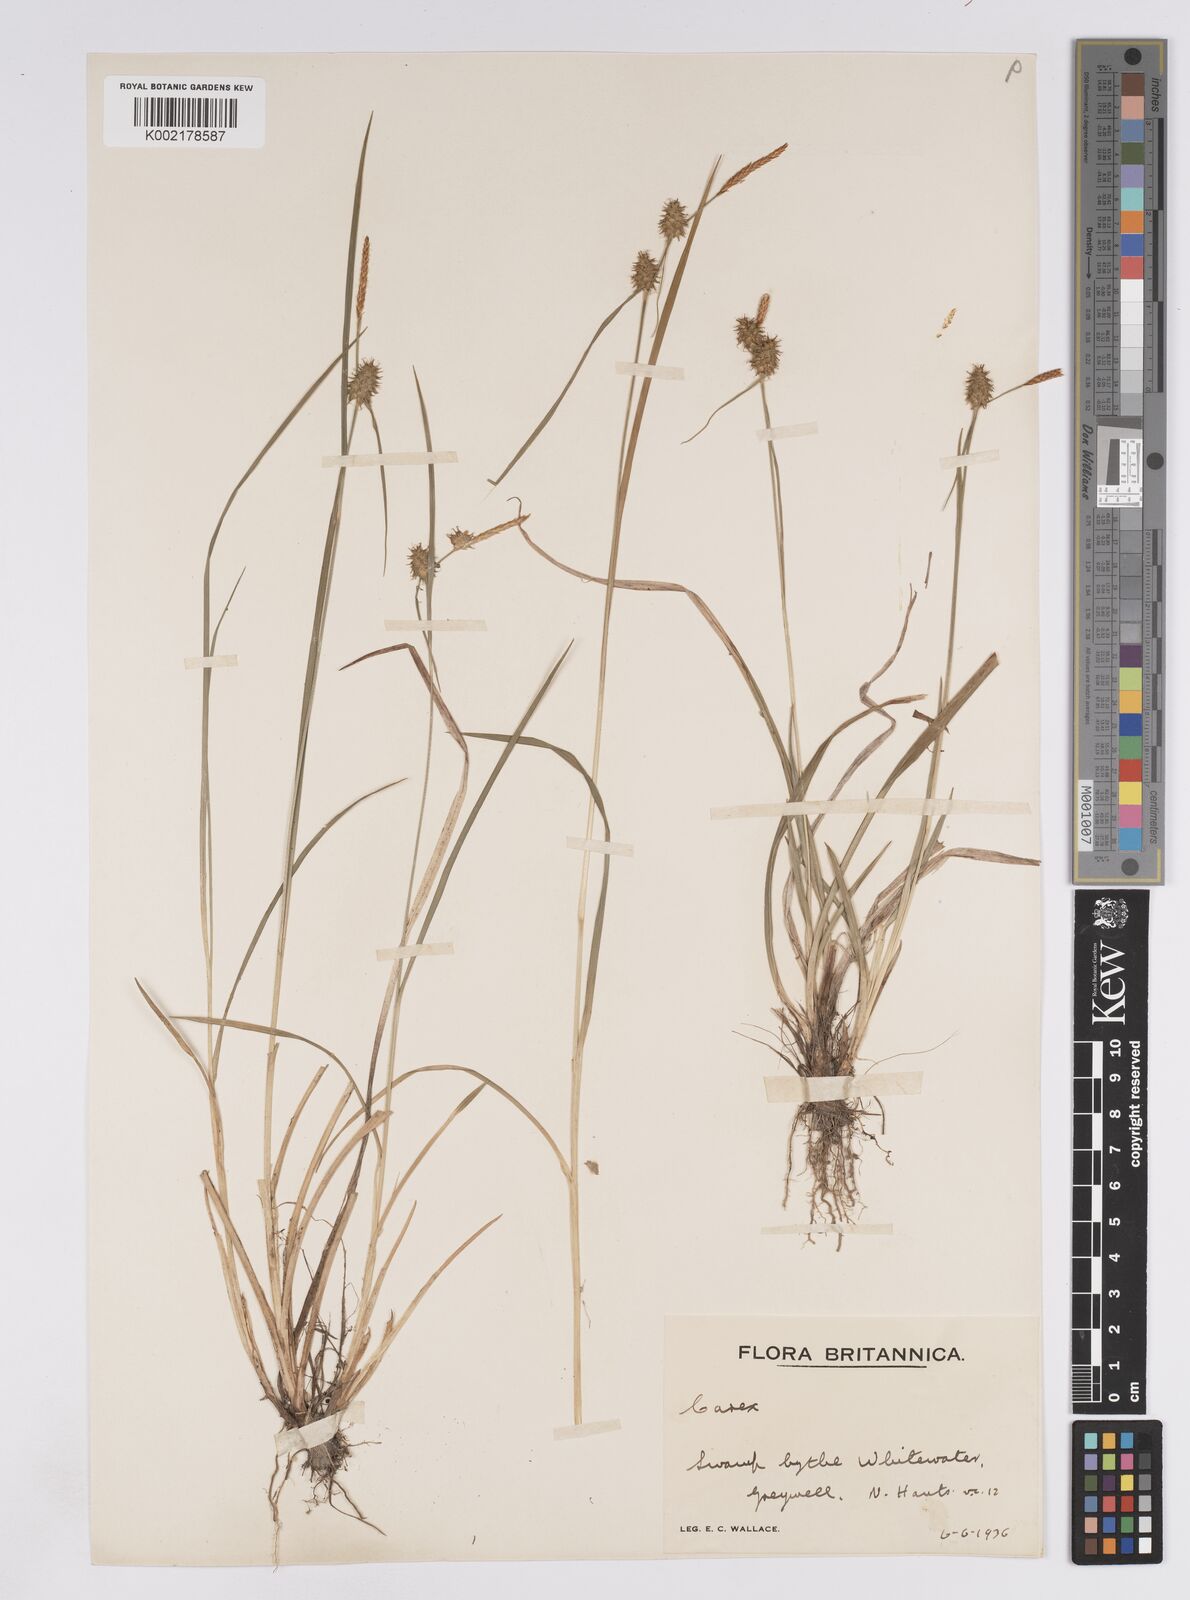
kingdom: Plantae
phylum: Tracheophyta
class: Liliopsida
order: Poales
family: Cyperaceae
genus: Carex
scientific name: Carex lepidocarpa
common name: Long-stalked yellow-sedge
